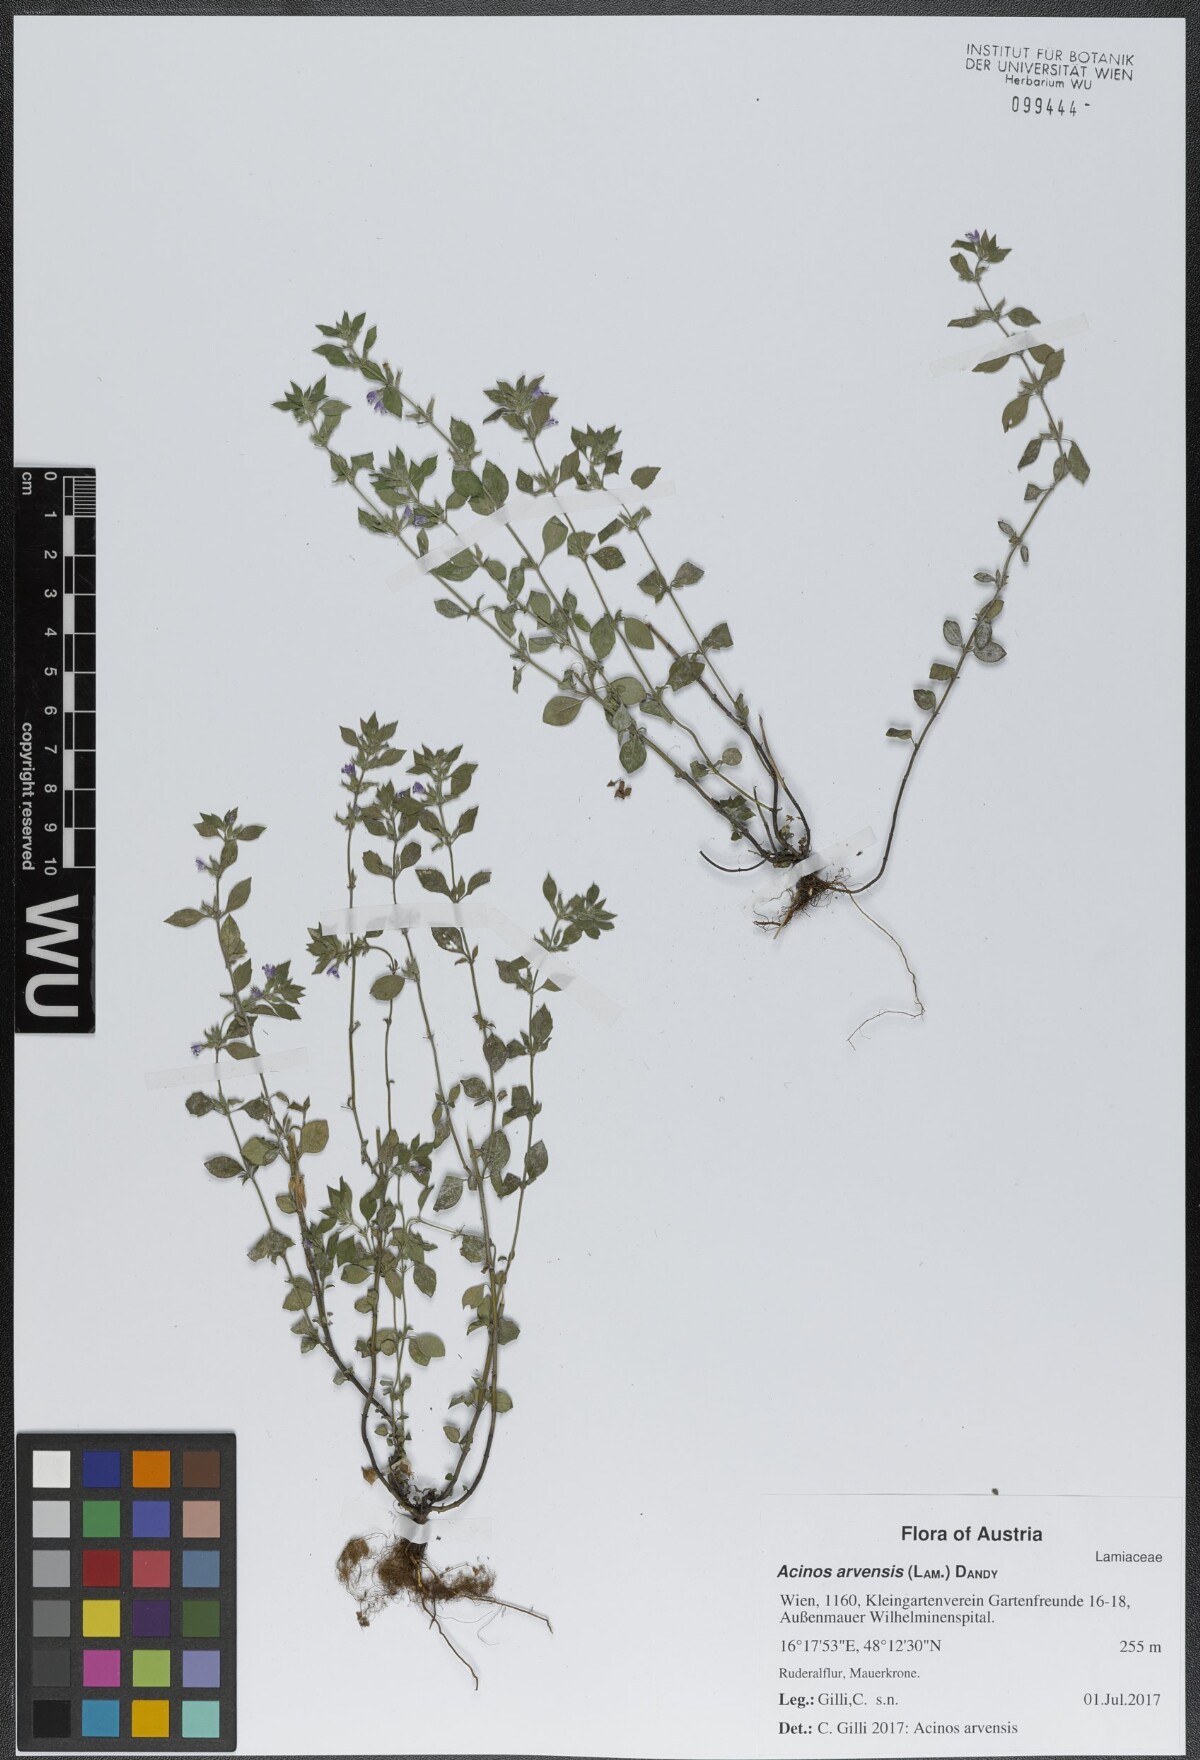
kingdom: Plantae
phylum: Tracheophyta
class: Magnoliopsida
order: Lamiales
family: Lamiaceae
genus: Clinopodium
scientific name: Clinopodium acinos
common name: Basil thyme
